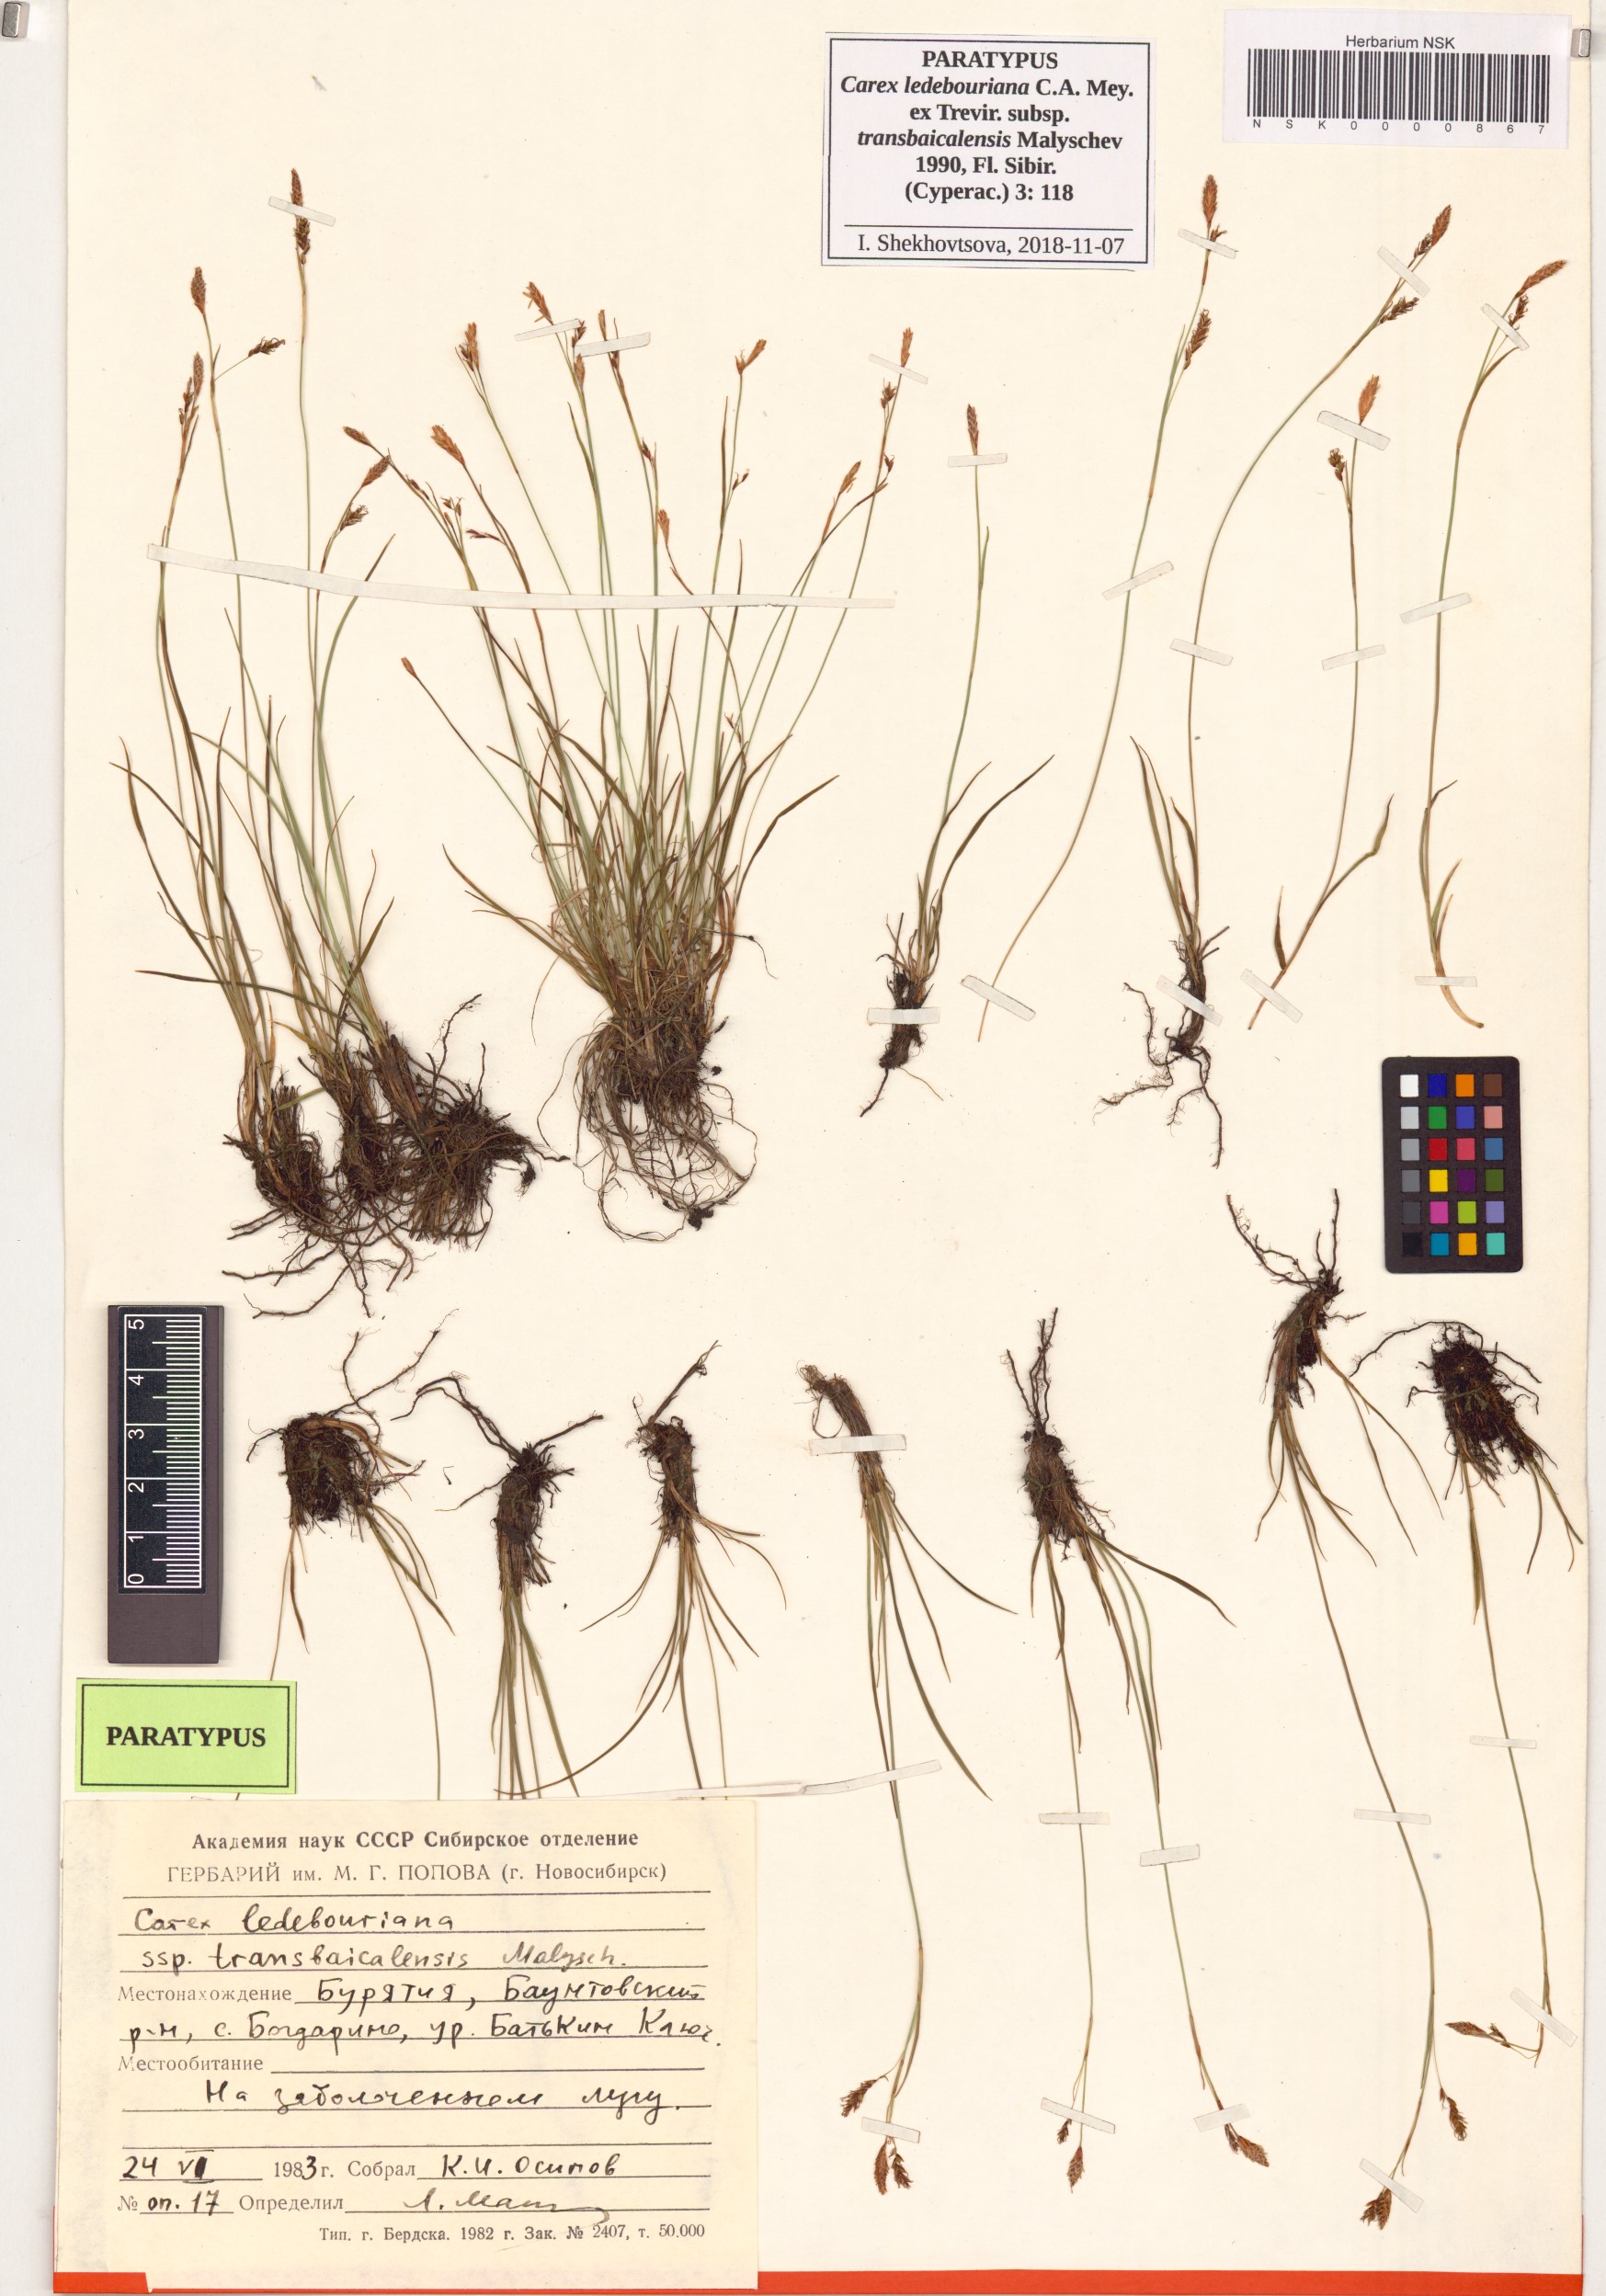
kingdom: Plantae
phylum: Tracheophyta
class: Liliopsida
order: Poales
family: Cyperaceae
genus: Carex
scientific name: Carex ledebouriana
